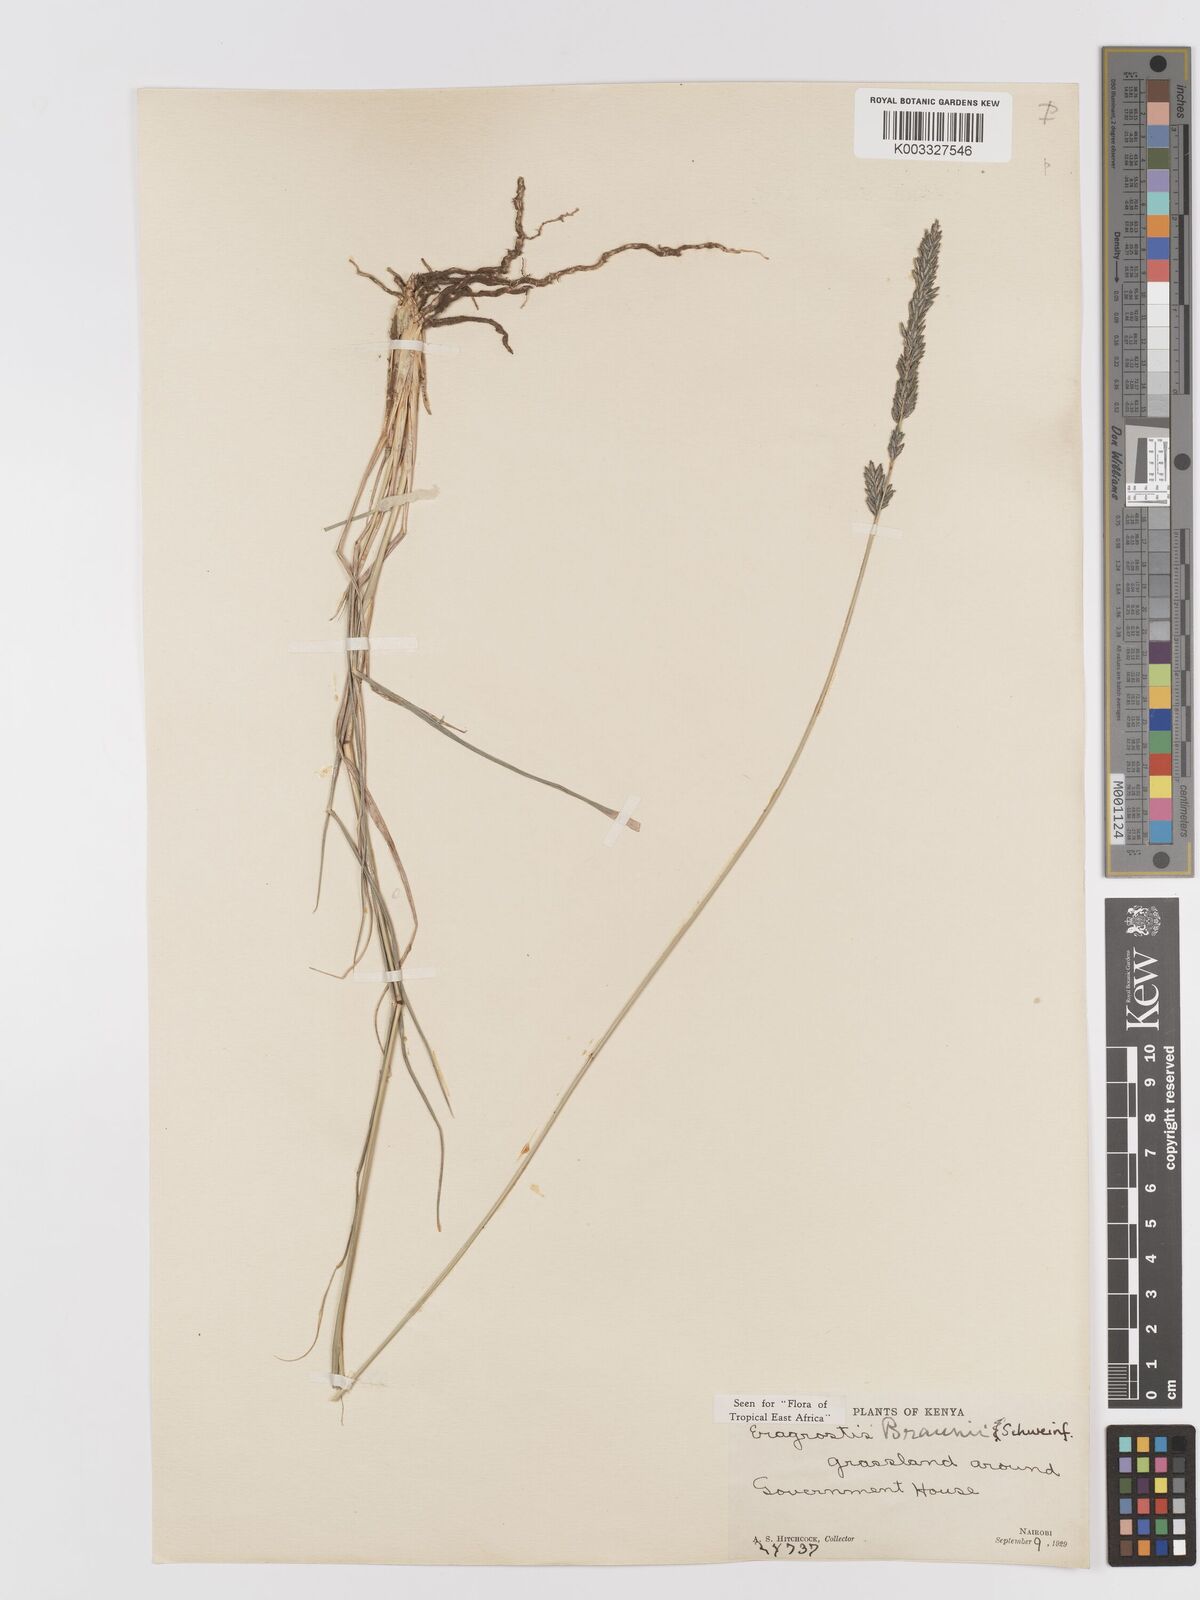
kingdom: Plantae
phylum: Tracheophyta
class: Liliopsida
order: Poales
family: Poaceae
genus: Eragrostis
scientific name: Eragrostis braunii
